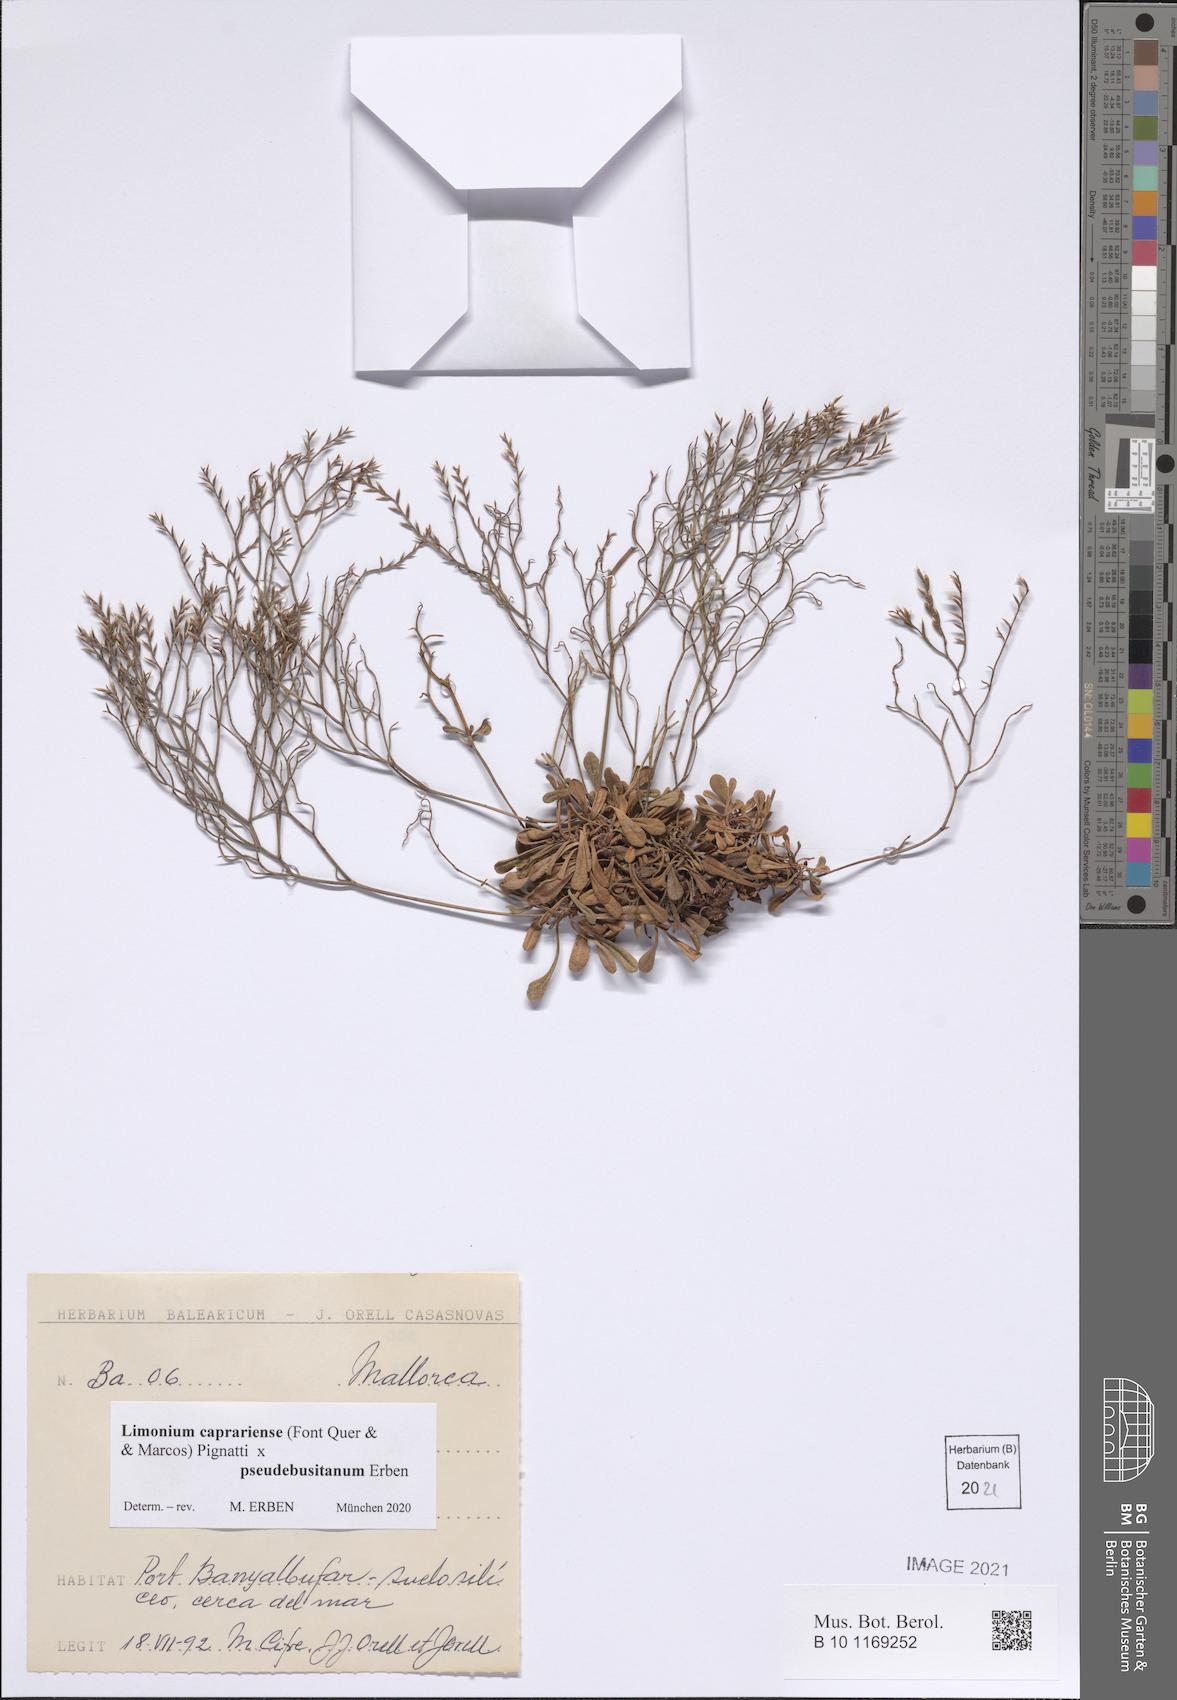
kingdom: Plantae
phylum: Tracheophyta
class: Magnoliopsida
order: Caryophyllales
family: Plumbaginaceae
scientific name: Plumbaginaceae
